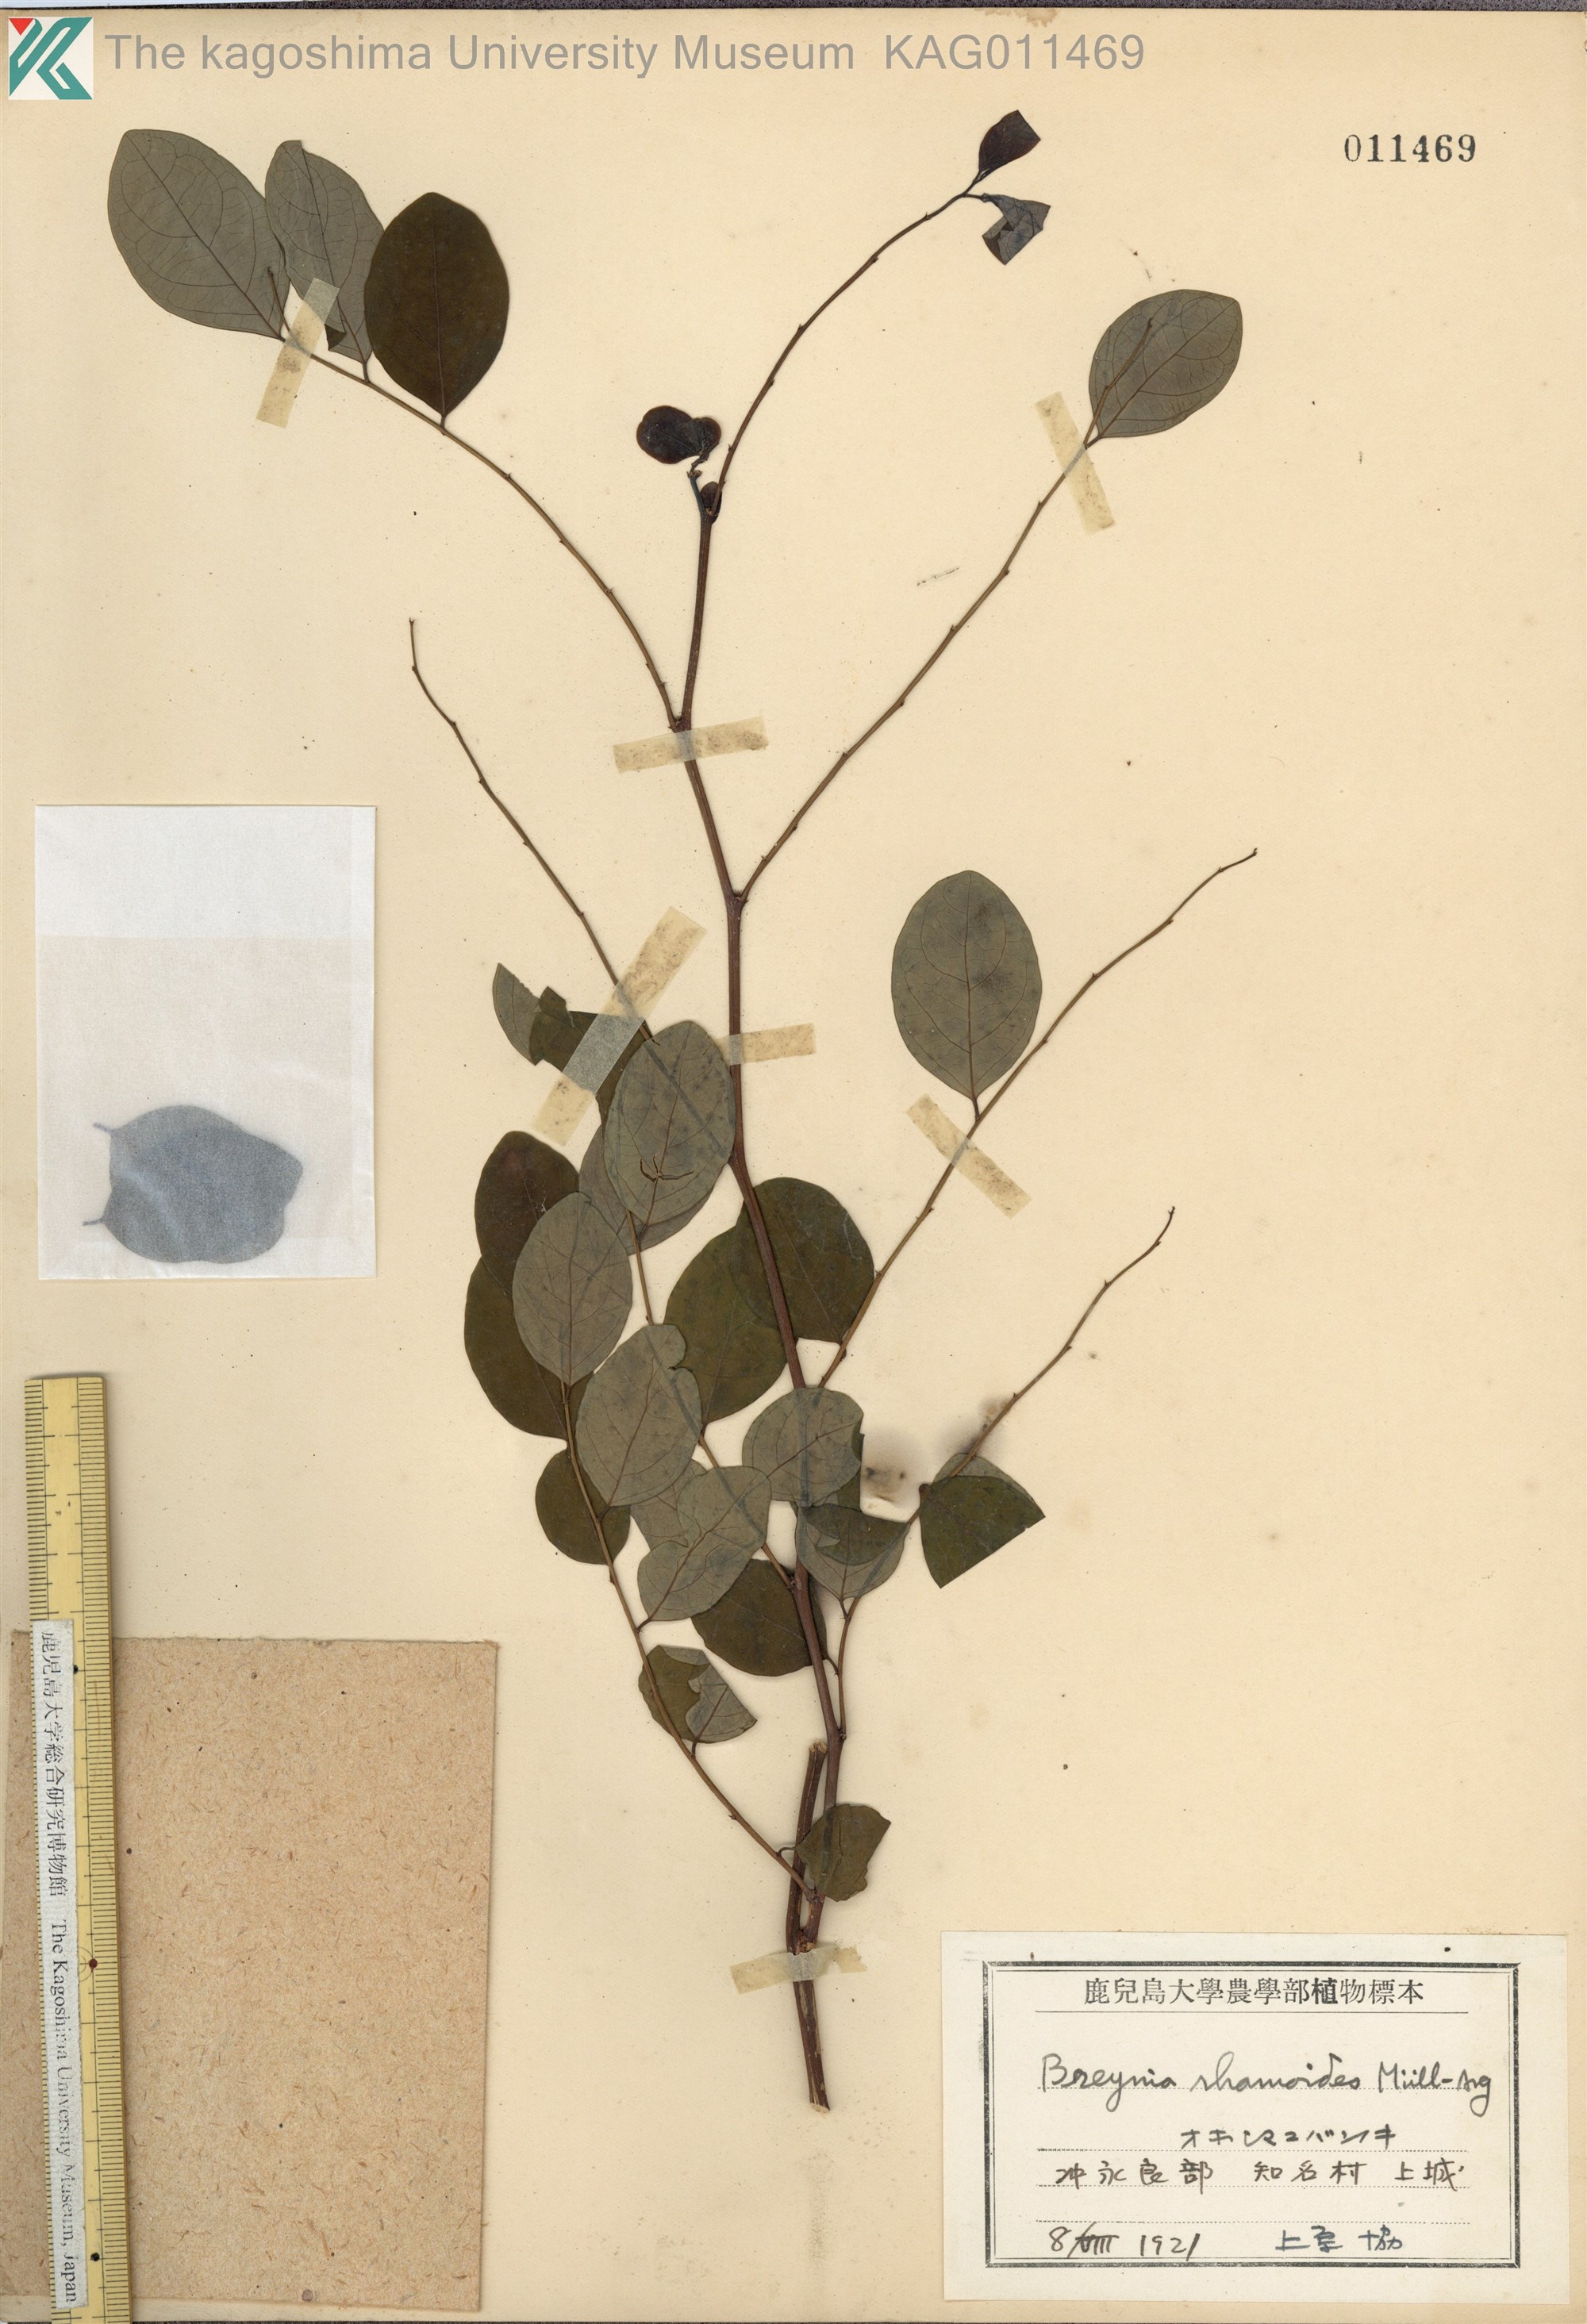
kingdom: Plantae
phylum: Tracheophyta
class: Magnoliopsida
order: Malpighiales
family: Phyllanthaceae
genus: Breynia
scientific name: Breynia vitis-idaea
